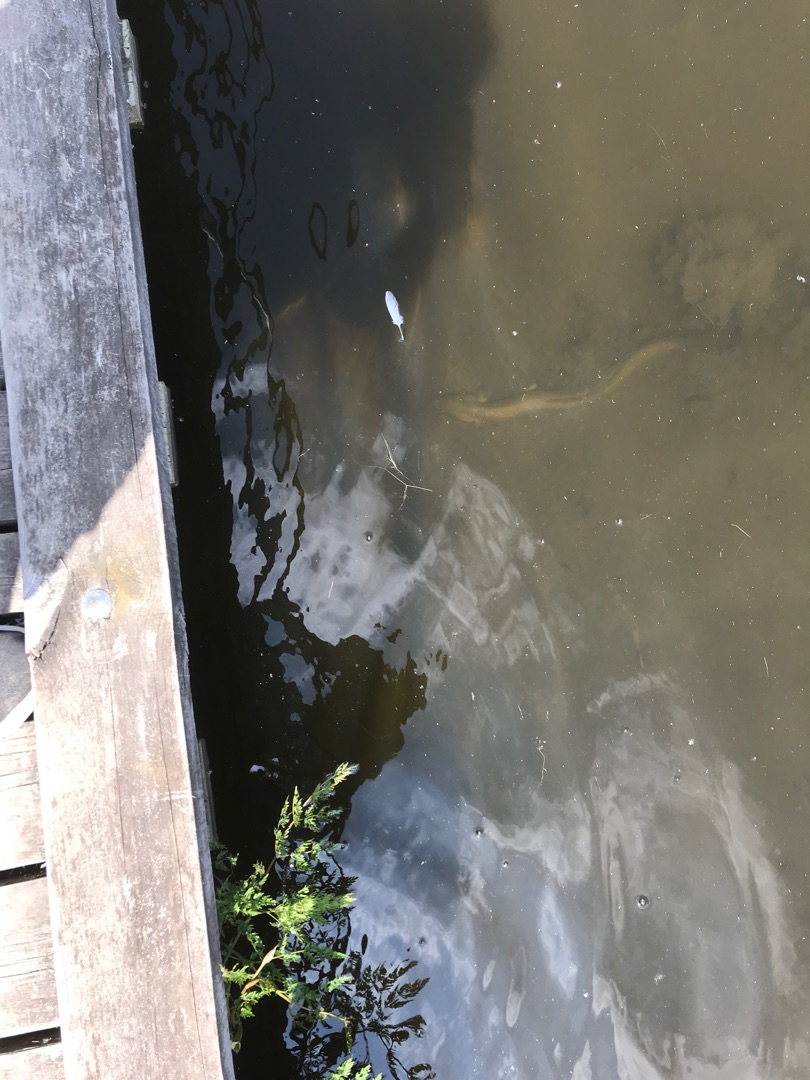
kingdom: Animalia
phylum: Chordata
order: Anguilliformes
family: Anguillidae
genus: Anguilla
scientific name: Anguilla anguilla
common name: Europæisk ål
